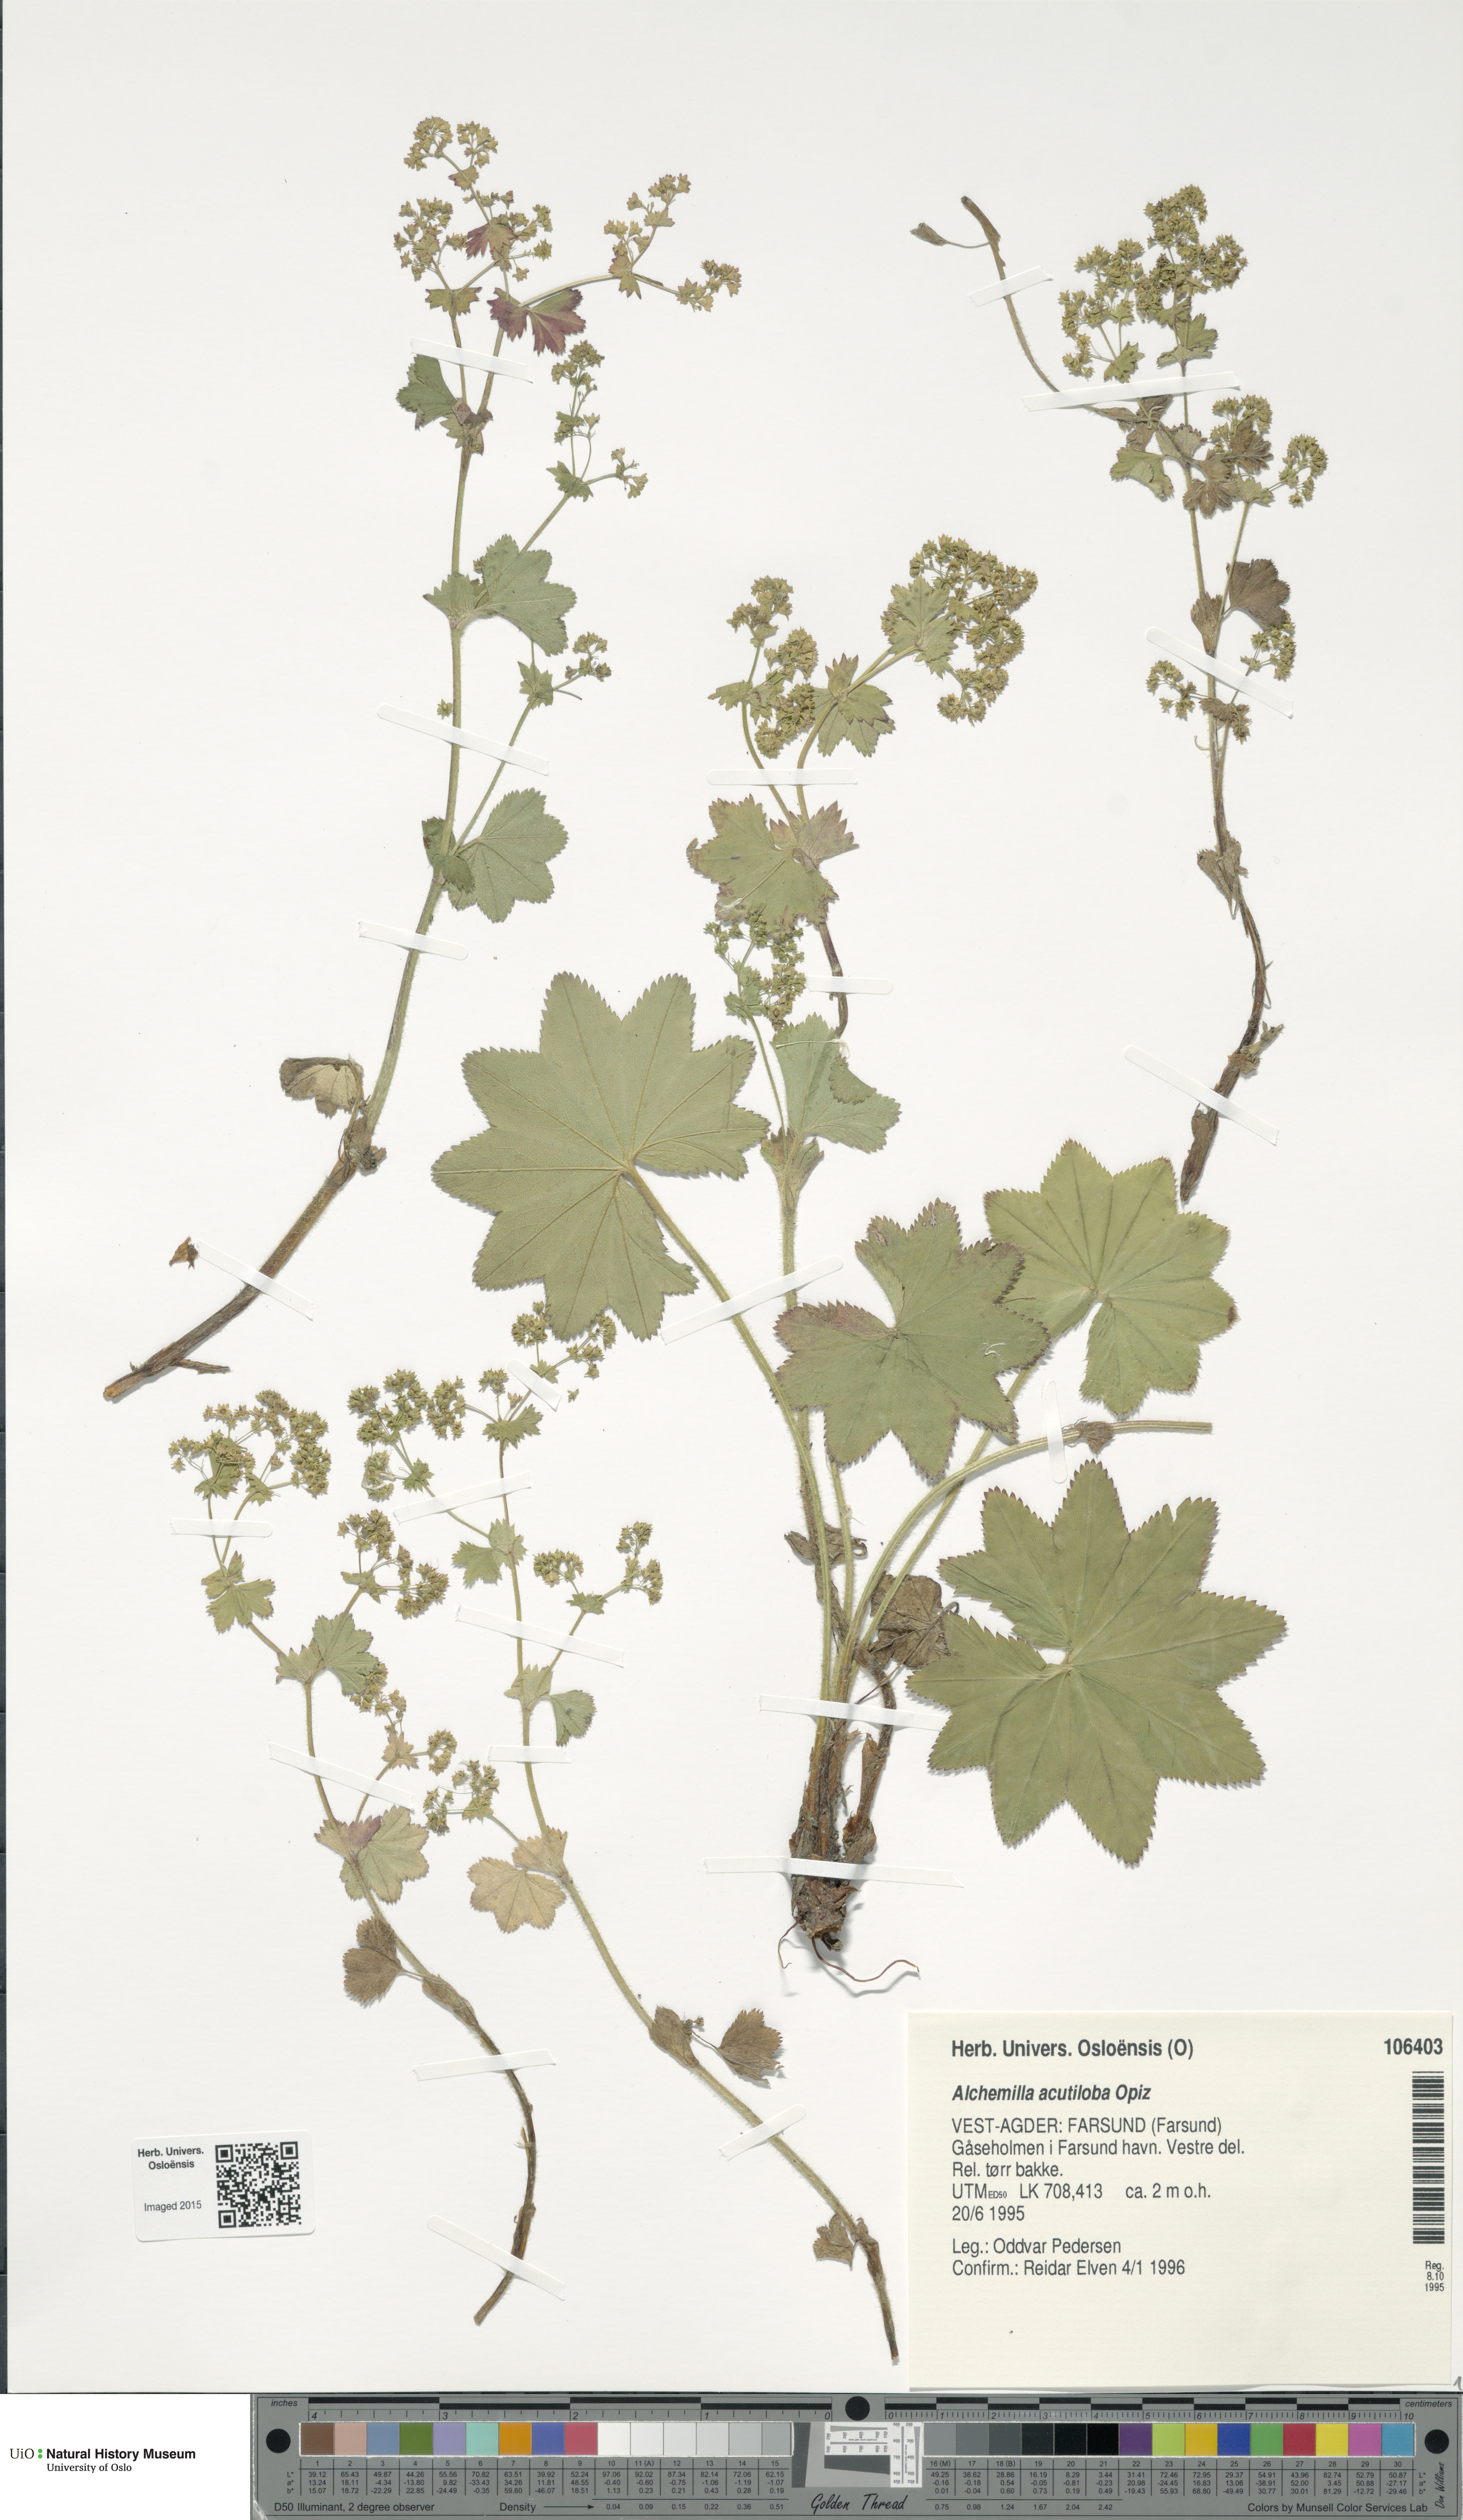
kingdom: Plantae
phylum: Tracheophyta
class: Magnoliopsida
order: Rosales
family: Rosaceae
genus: Alchemilla
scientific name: Alchemilla vulgaris
